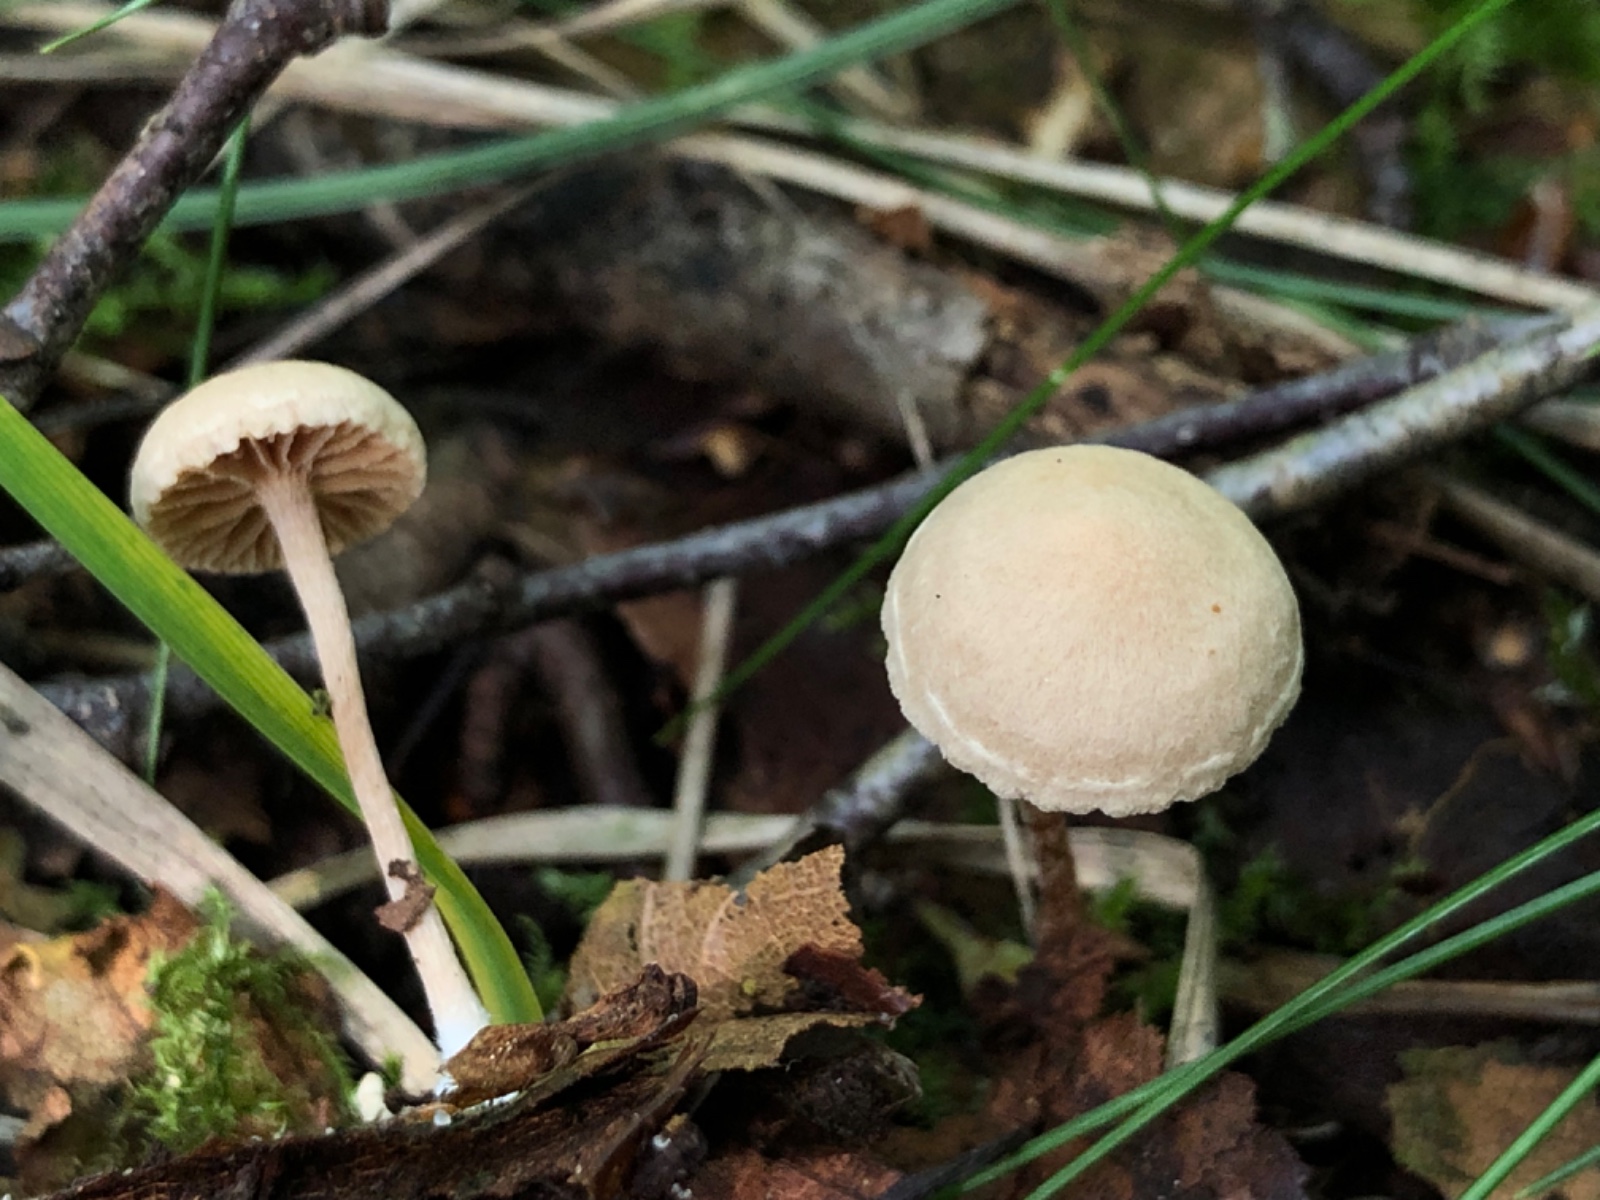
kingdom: Fungi
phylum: Basidiomycota
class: Agaricomycetes
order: Agaricales
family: Tubariaceae
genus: Tubaria
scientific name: Tubaria conspersa
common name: bleg fnughat
